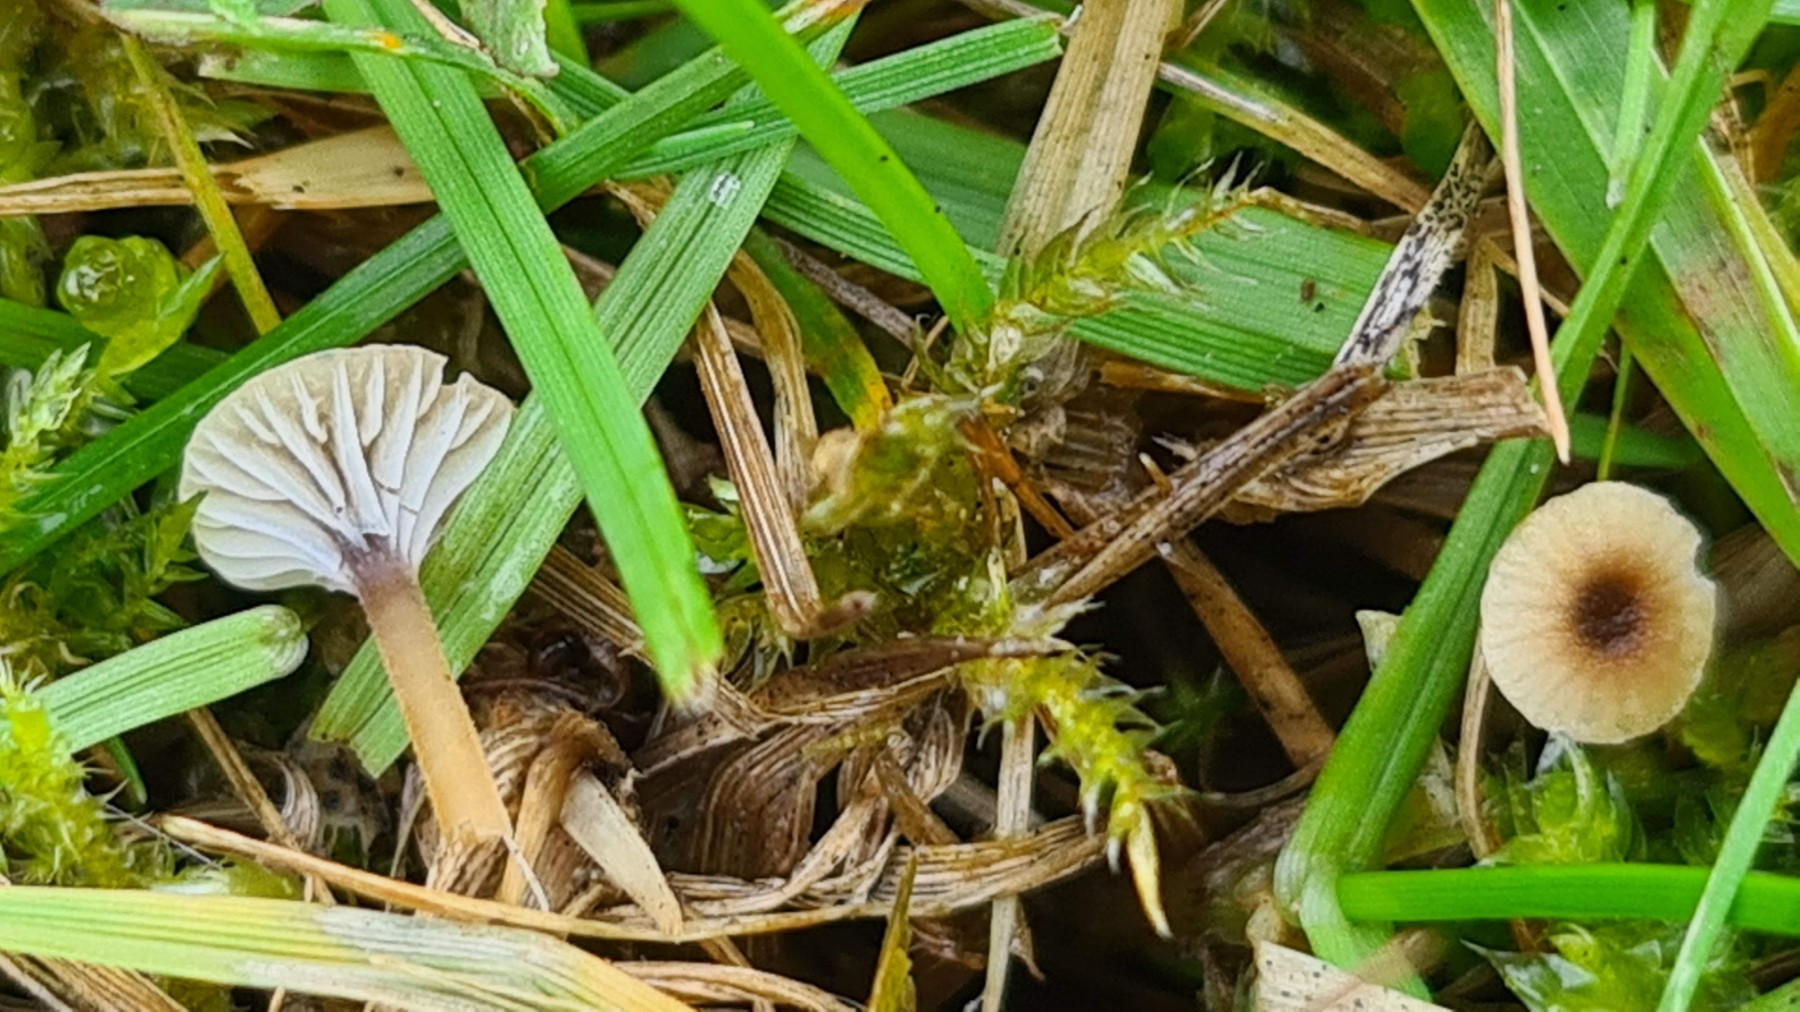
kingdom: Fungi
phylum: Basidiomycota
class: Agaricomycetes
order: Hymenochaetales
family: Rickenellaceae
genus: Rickenella
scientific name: Rickenella swartzii
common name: finstokket mosnavlehat
